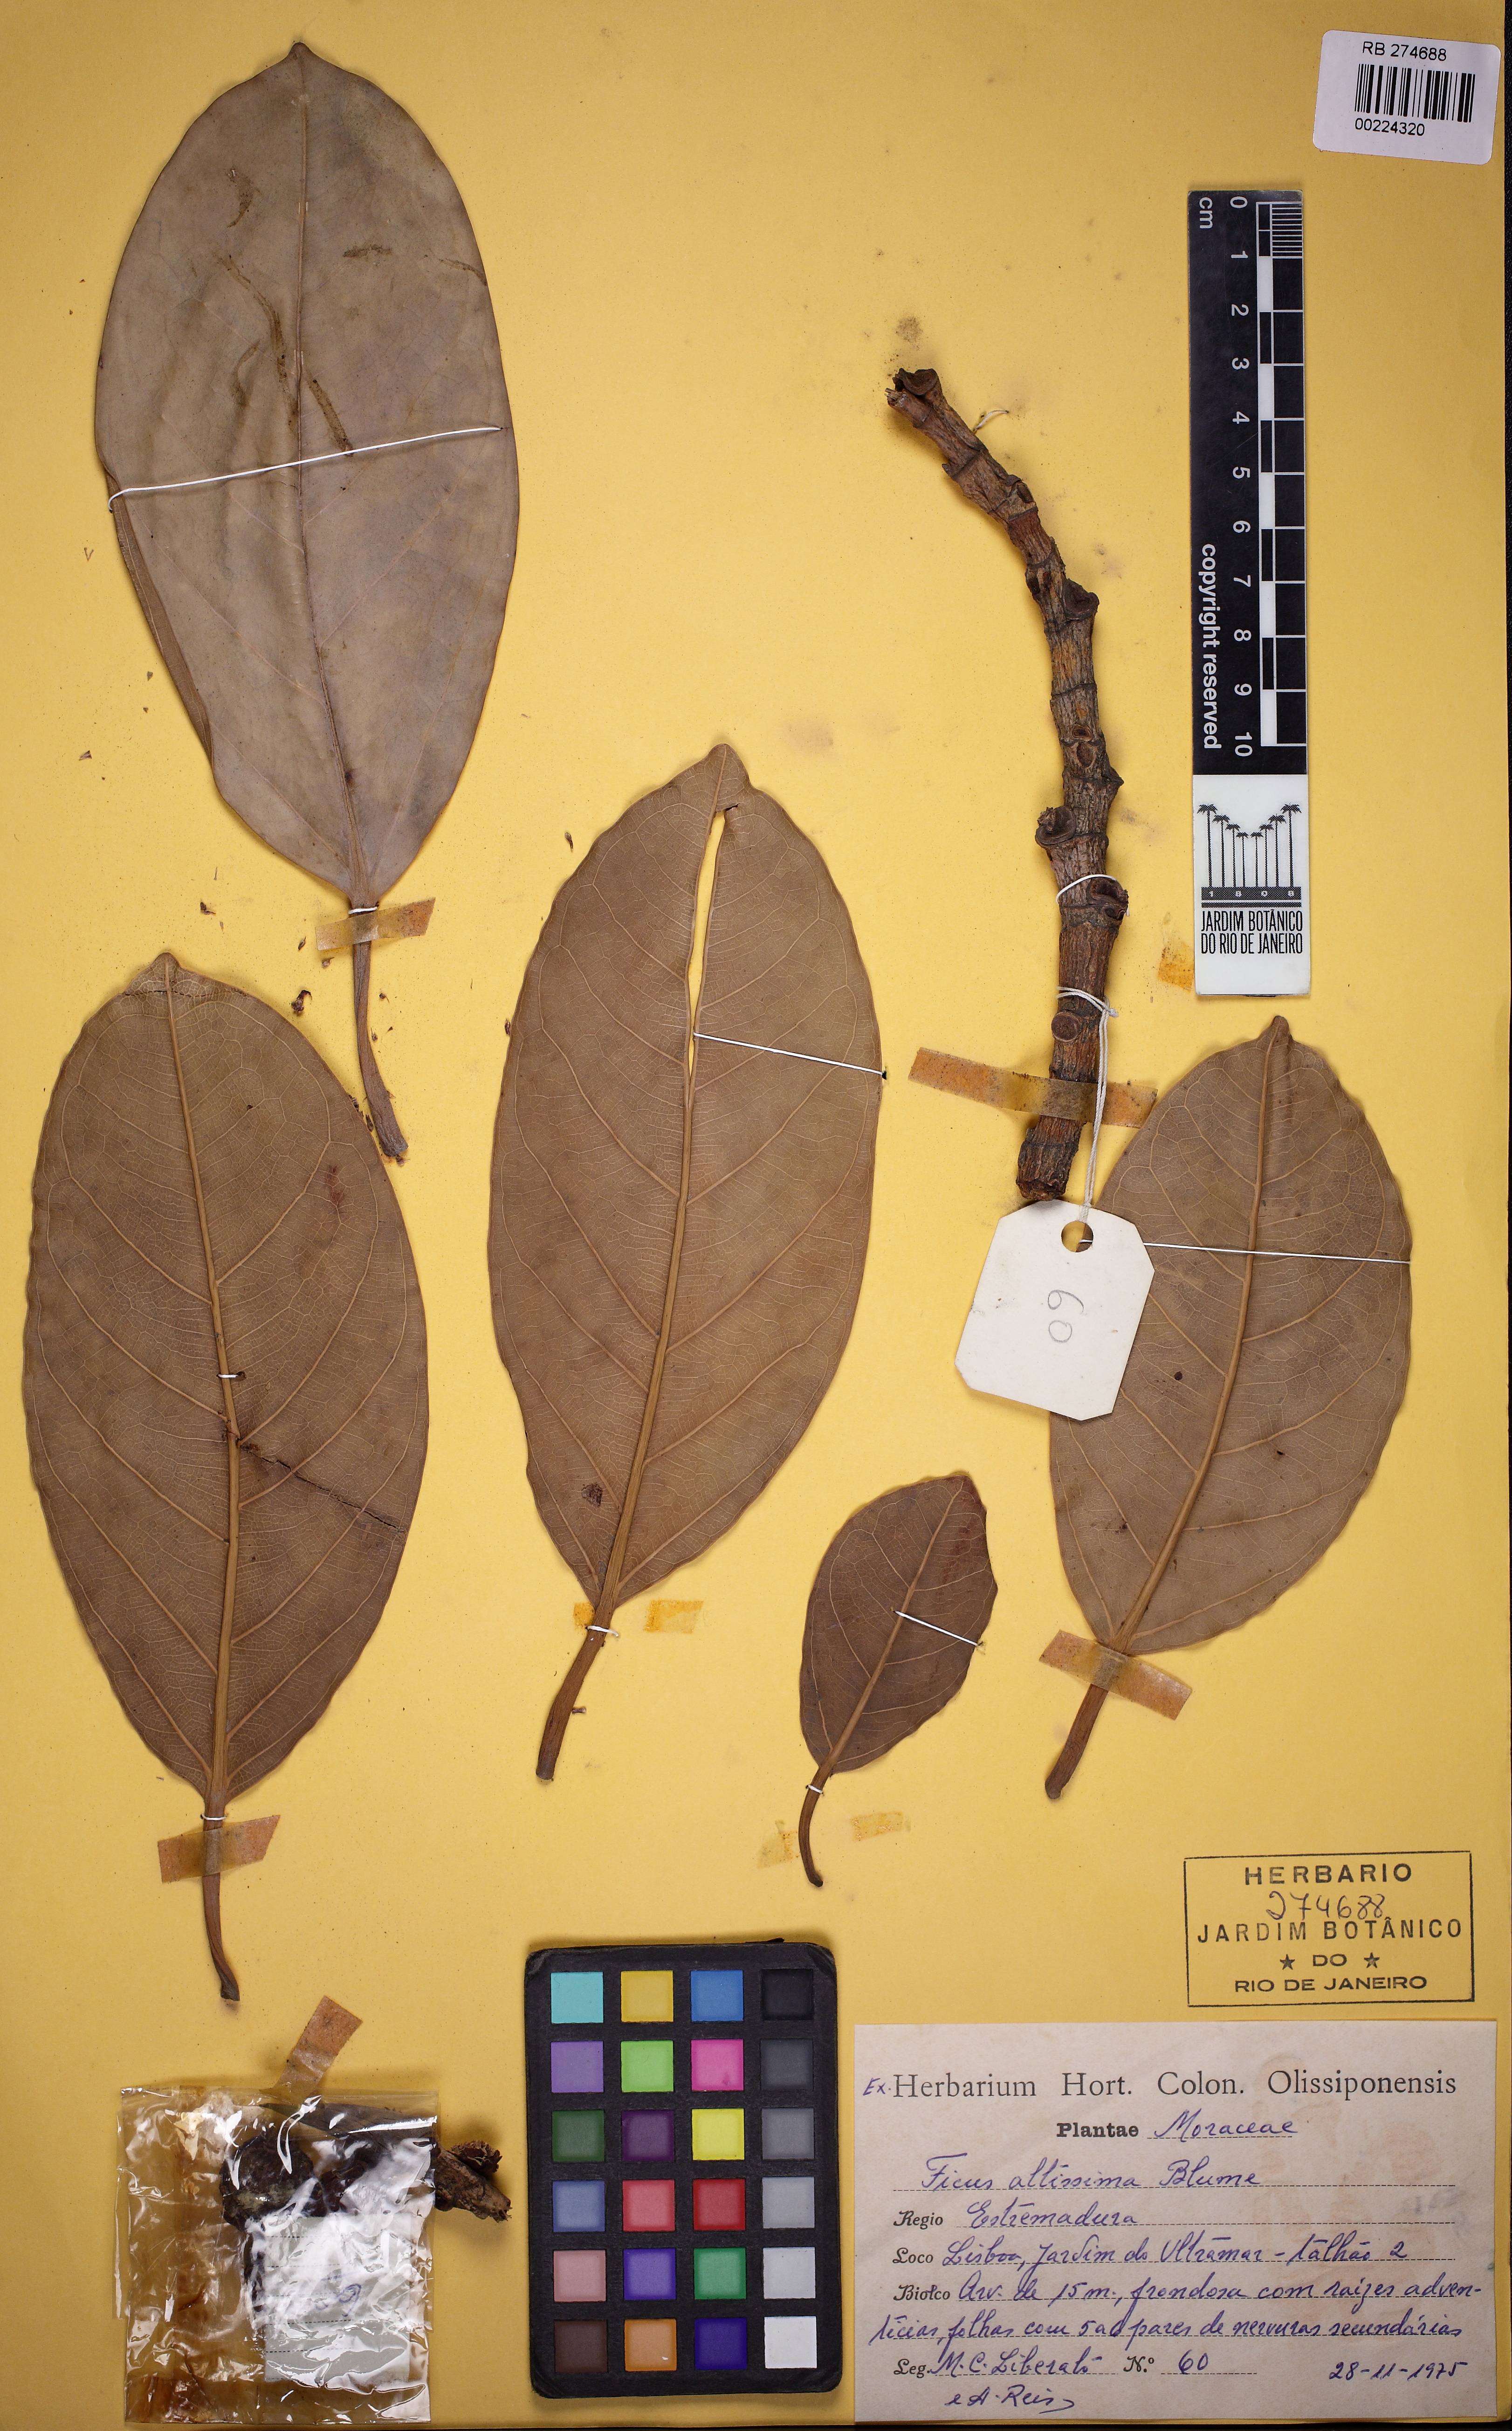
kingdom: Plantae
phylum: Tracheophyta
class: Magnoliopsida
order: Rosales
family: Moraceae
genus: Ficus
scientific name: Ficus altissima
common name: Council tree
